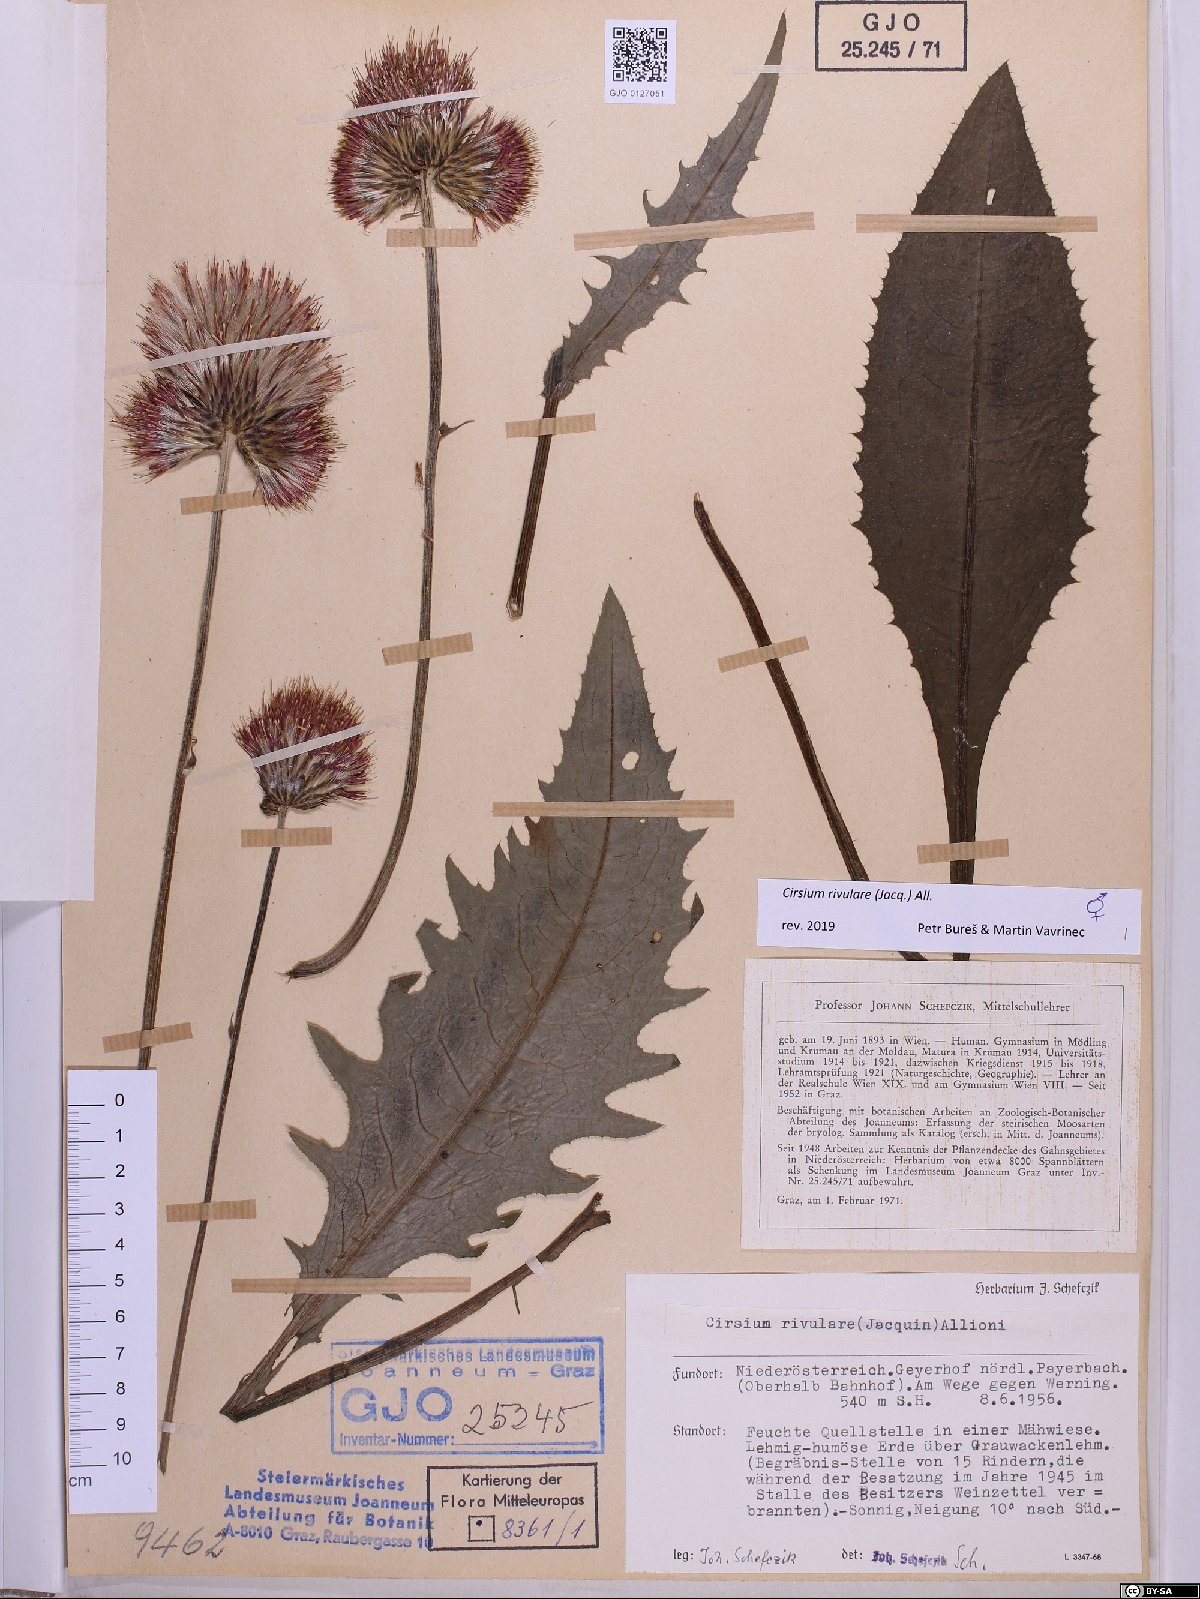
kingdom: Plantae
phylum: Tracheophyta
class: Magnoliopsida
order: Asterales
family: Asteraceae
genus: Cirsium
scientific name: Cirsium rivulare
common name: Brook thistle
